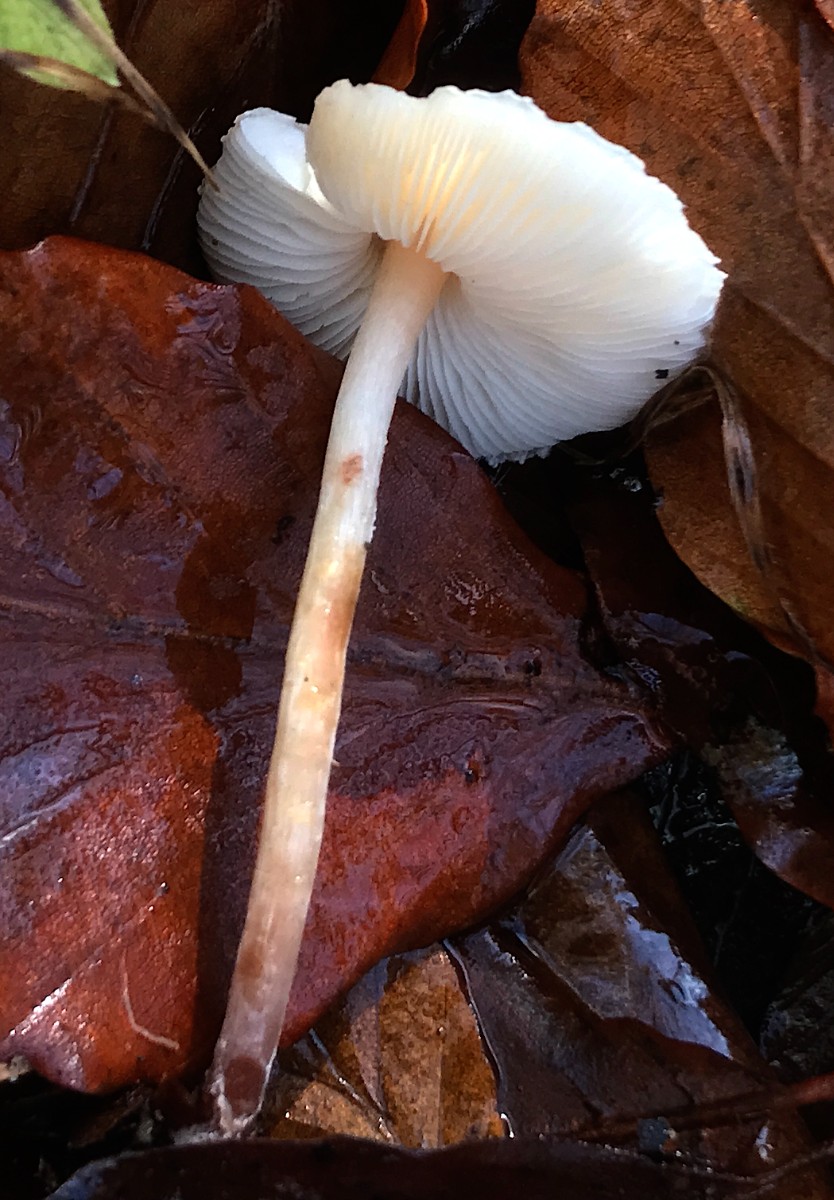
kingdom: Fungi
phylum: Basidiomycota
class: Agaricomycetes
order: Agaricales
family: Agaricaceae
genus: Lepiota
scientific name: Lepiota cristata
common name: stinkende parasolhat
